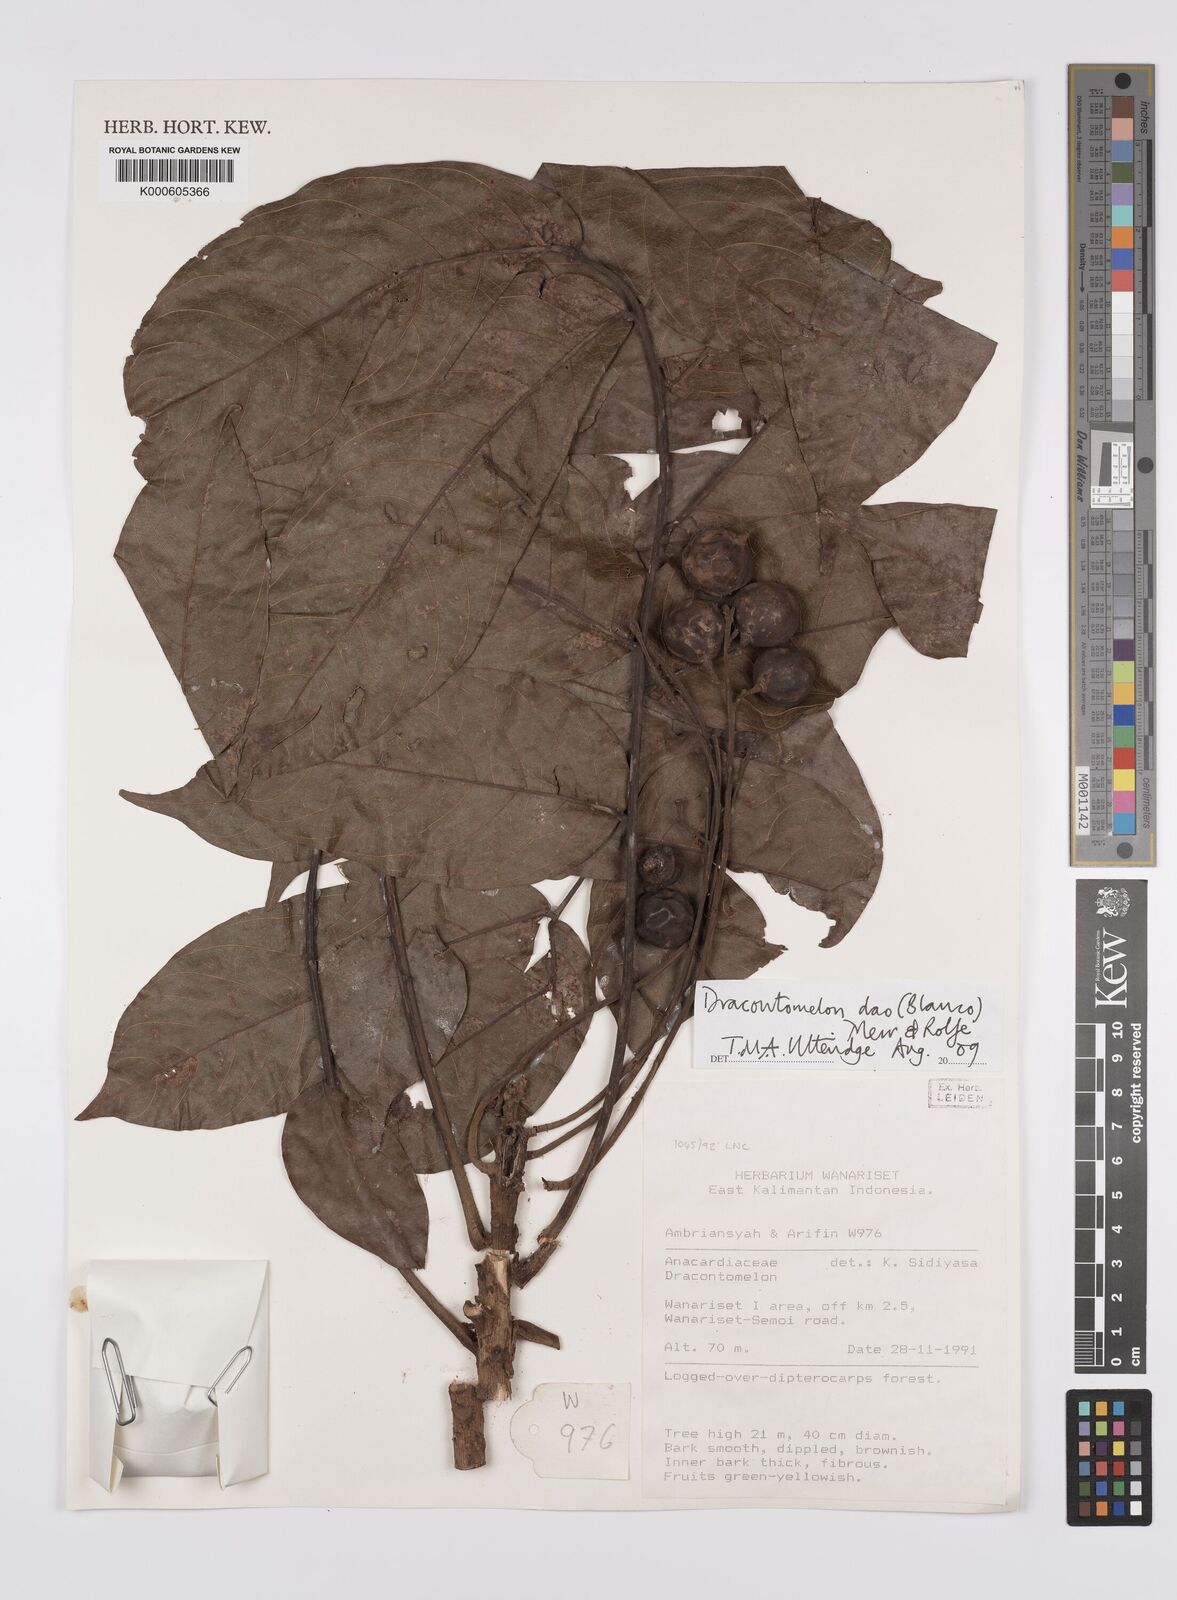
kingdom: Plantae
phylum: Tracheophyta
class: Magnoliopsida
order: Sapindales
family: Anacardiaceae
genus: Dracontomelon
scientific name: Dracontomelon dao
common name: Argus pheasant-tree
